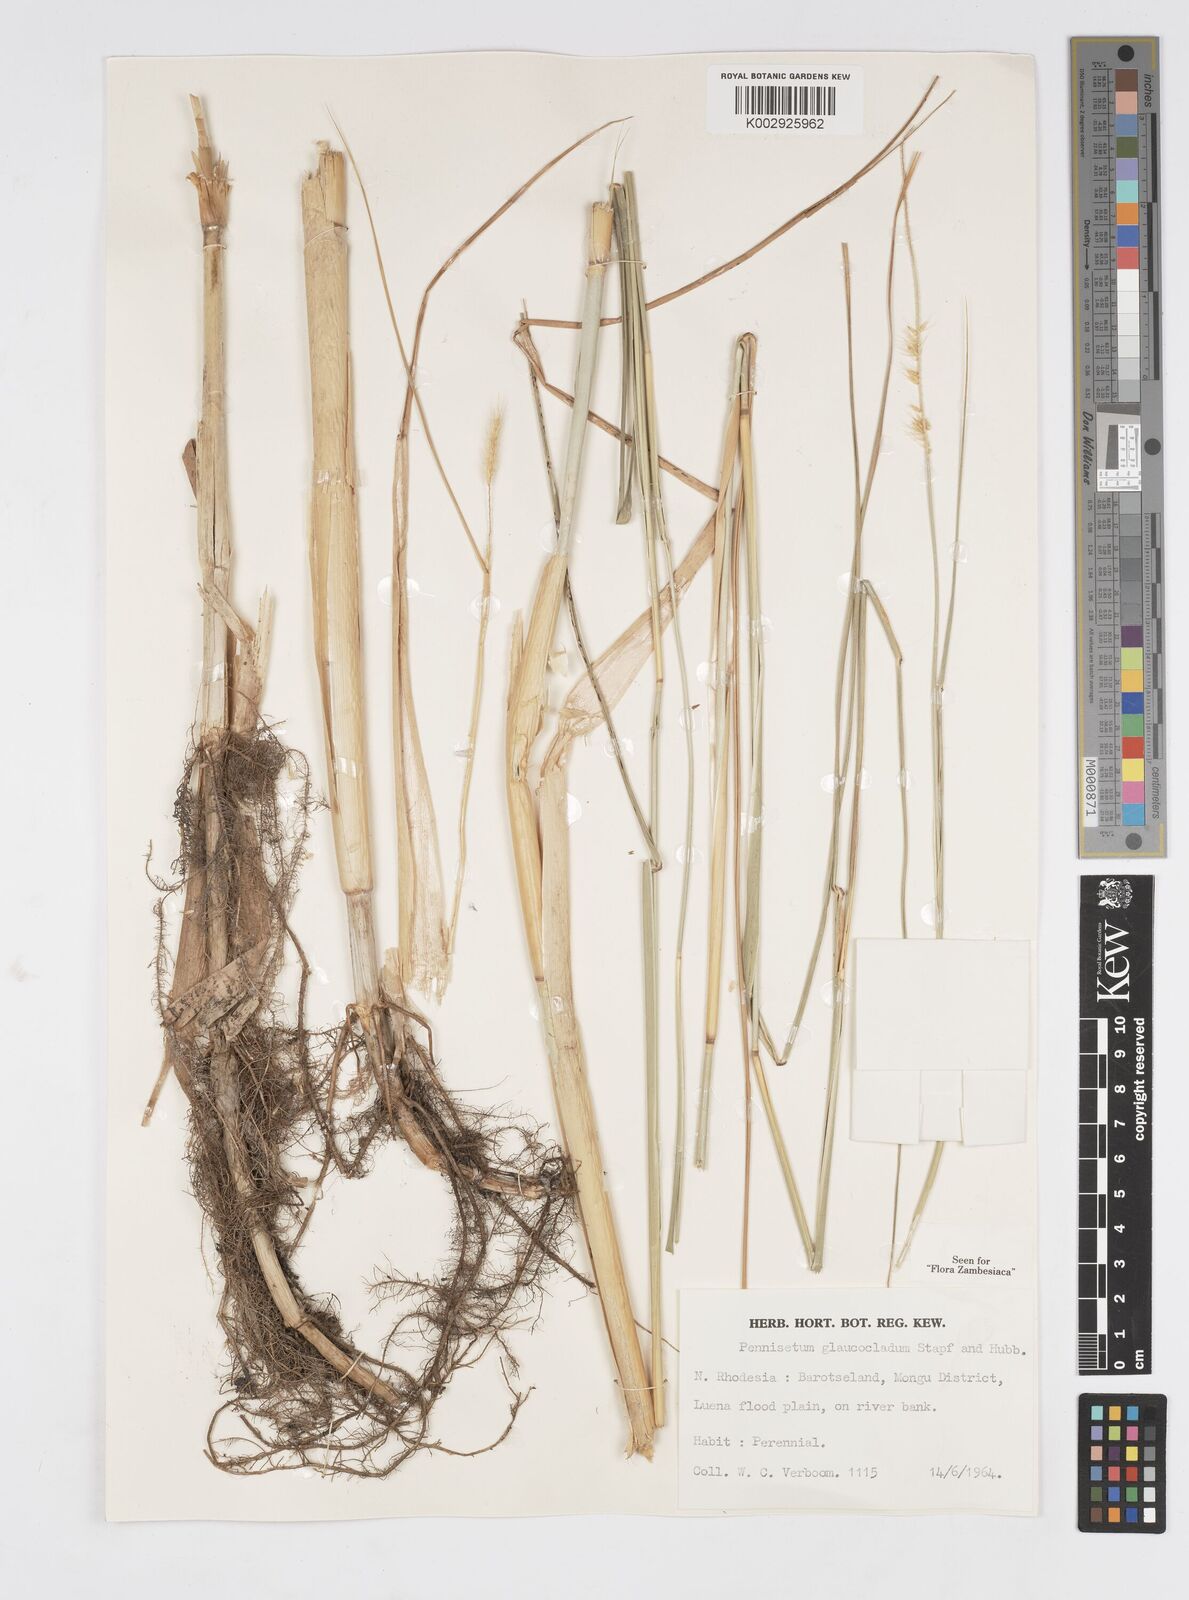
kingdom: Plantae
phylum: Tracheophyta
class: Liliopsida
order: Poales
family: Poaceae
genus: Cenchrus
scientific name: Cenchrus caudatus
